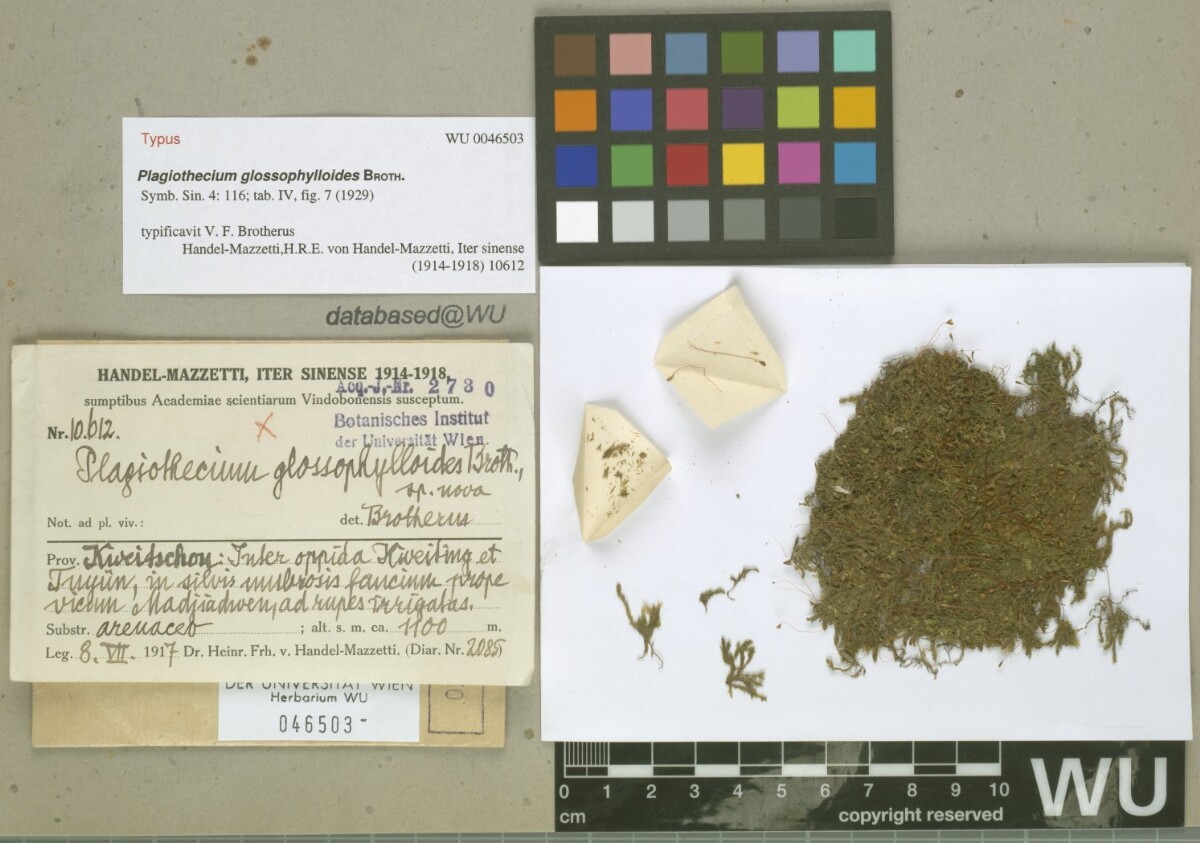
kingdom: Plantae
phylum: Bryophyta
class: Bryopsida
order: Hypnales
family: Hypnaceae
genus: Ectropothecium
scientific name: Ectropothecium glossophylloides
